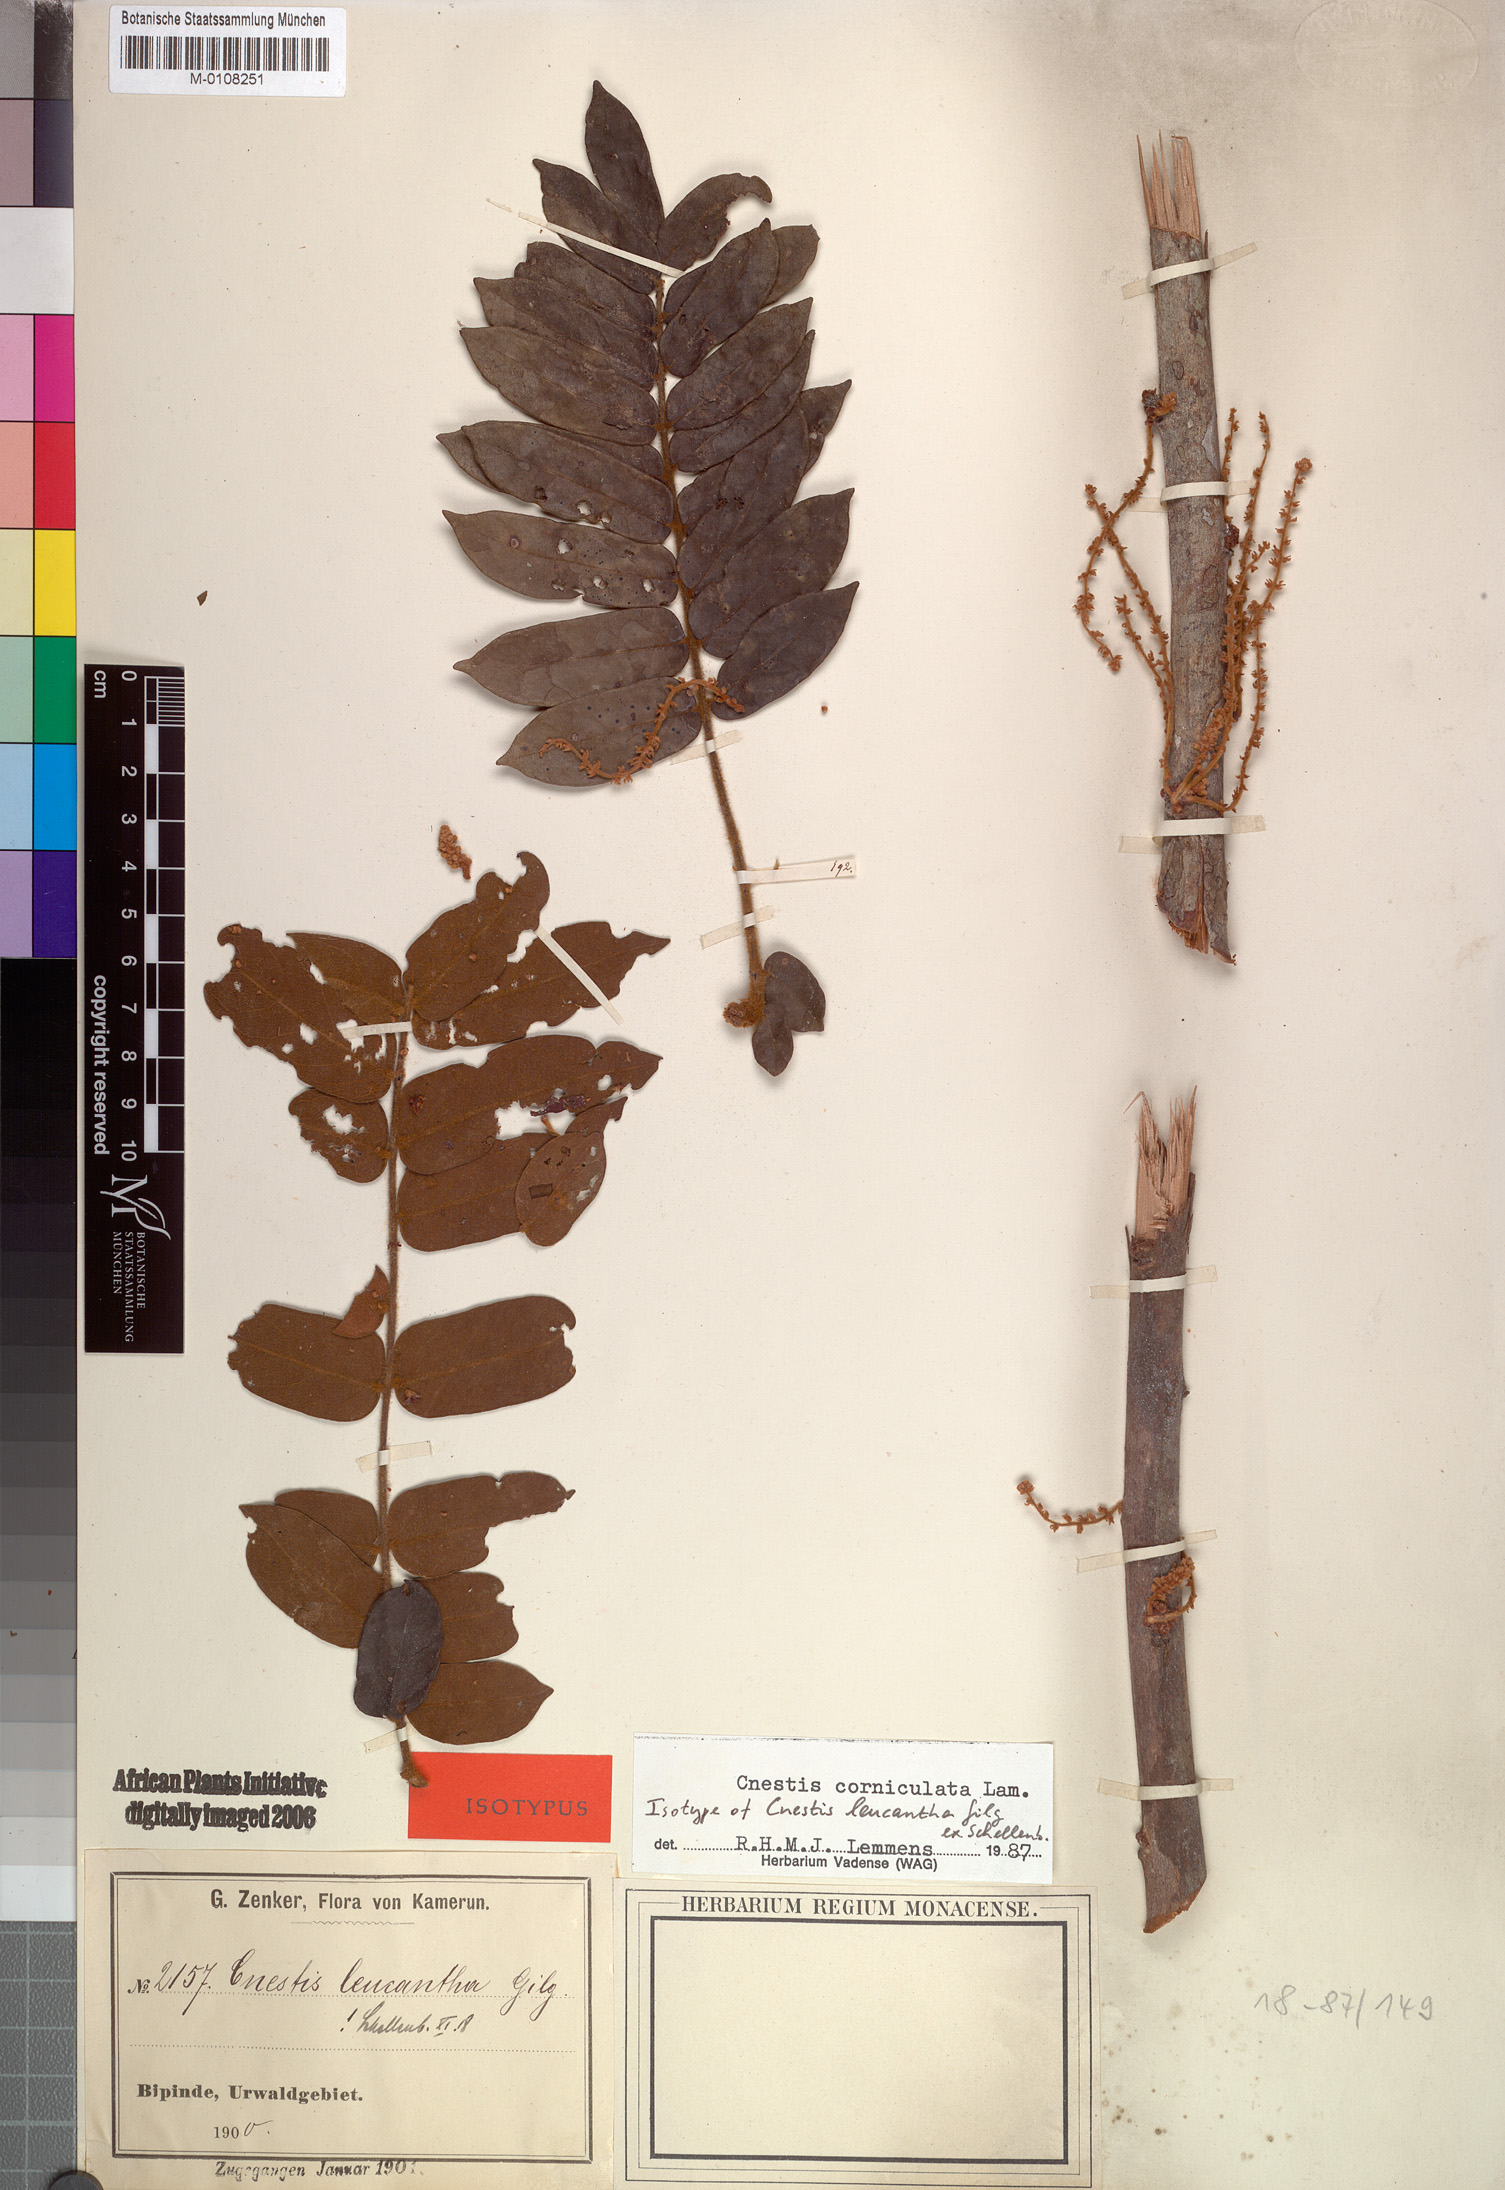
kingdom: Plantae
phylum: Tracheophyta
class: Magnoliopsida
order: Oxalidales
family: Connaraceae
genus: Cnestis
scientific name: Cnestis corniculata
